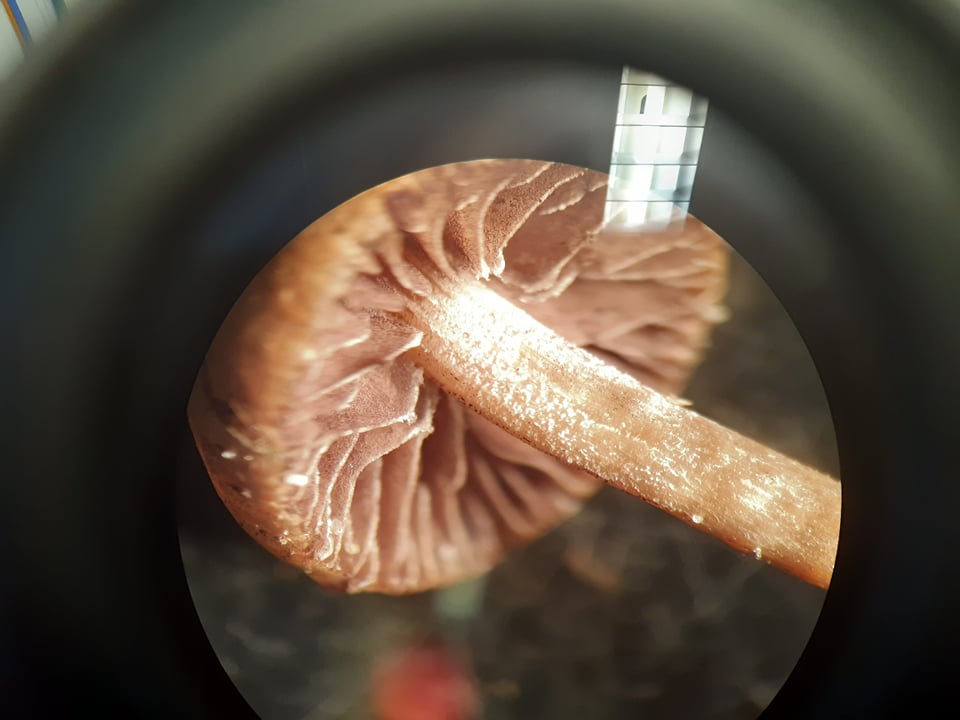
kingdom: Fungi
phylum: Basidiomycota
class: Agaricomycetes
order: Agaricales
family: Strophariaceae
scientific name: Strophariaceae
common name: bredbladfamilien
